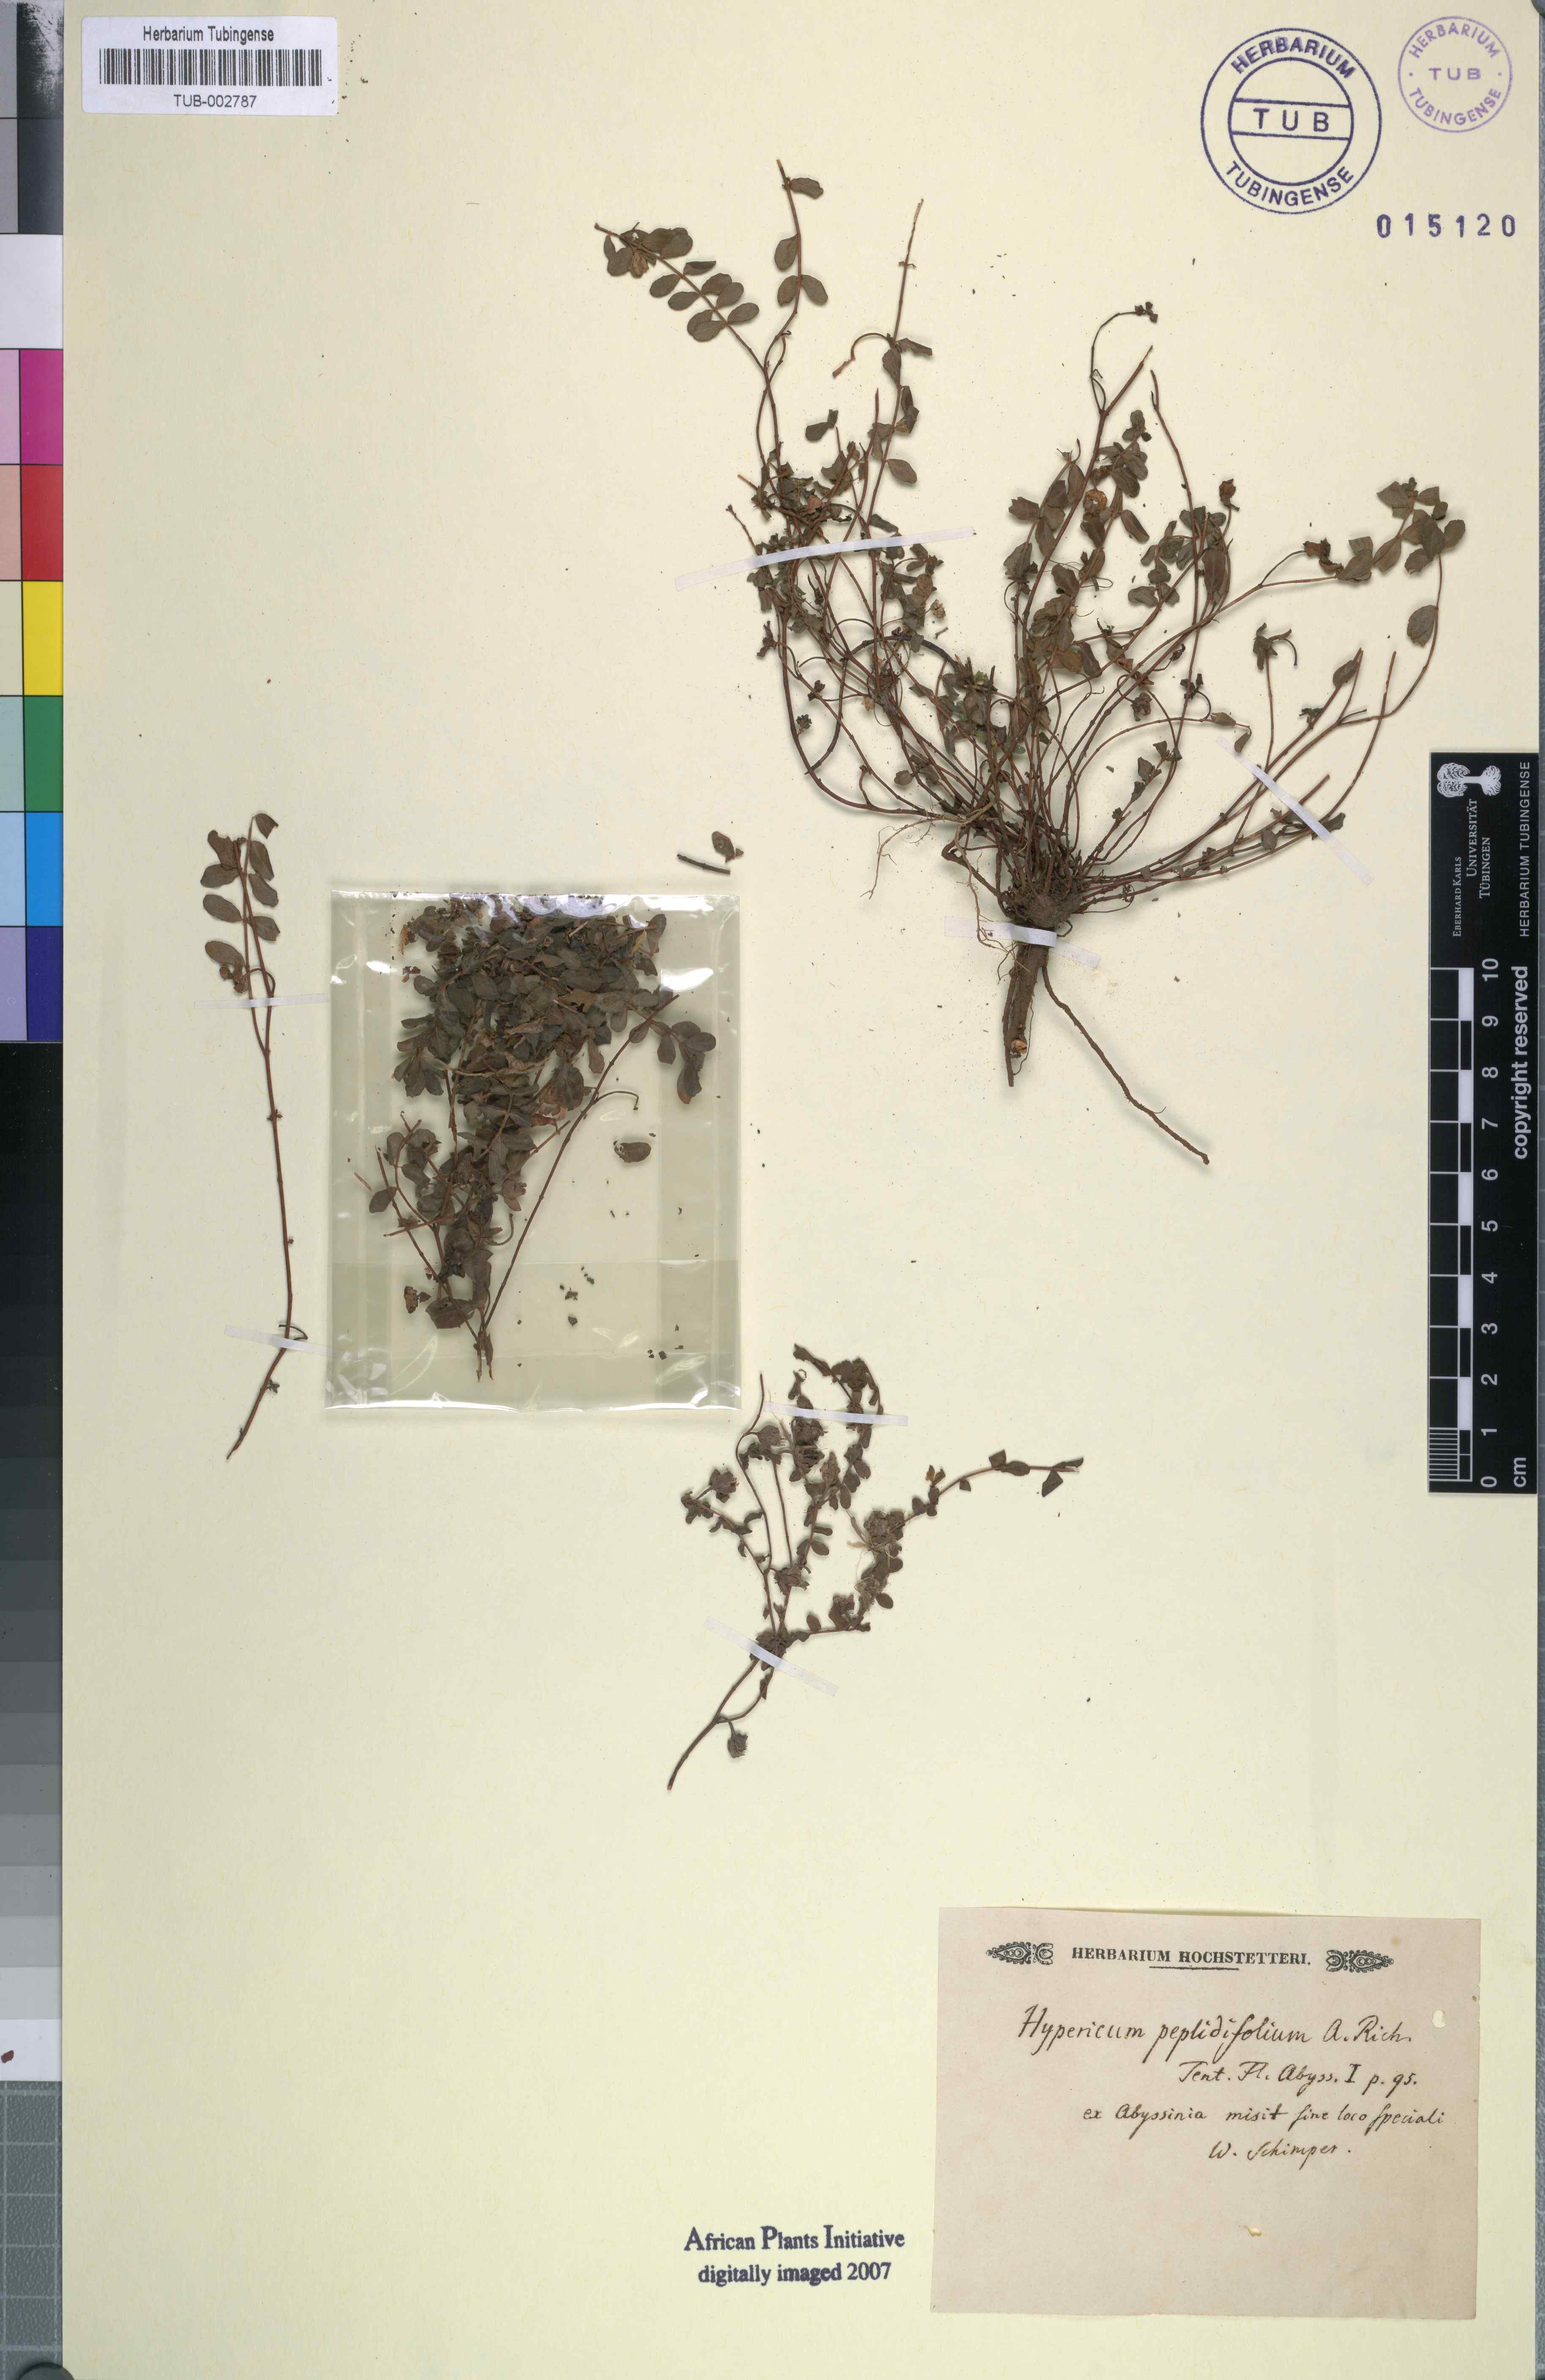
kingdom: Plantae
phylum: Tracheophyta
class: Magnoliopsida
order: Malpighiales
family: Hypericaceae
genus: Hypericum
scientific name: Hypericum peplidifolium
